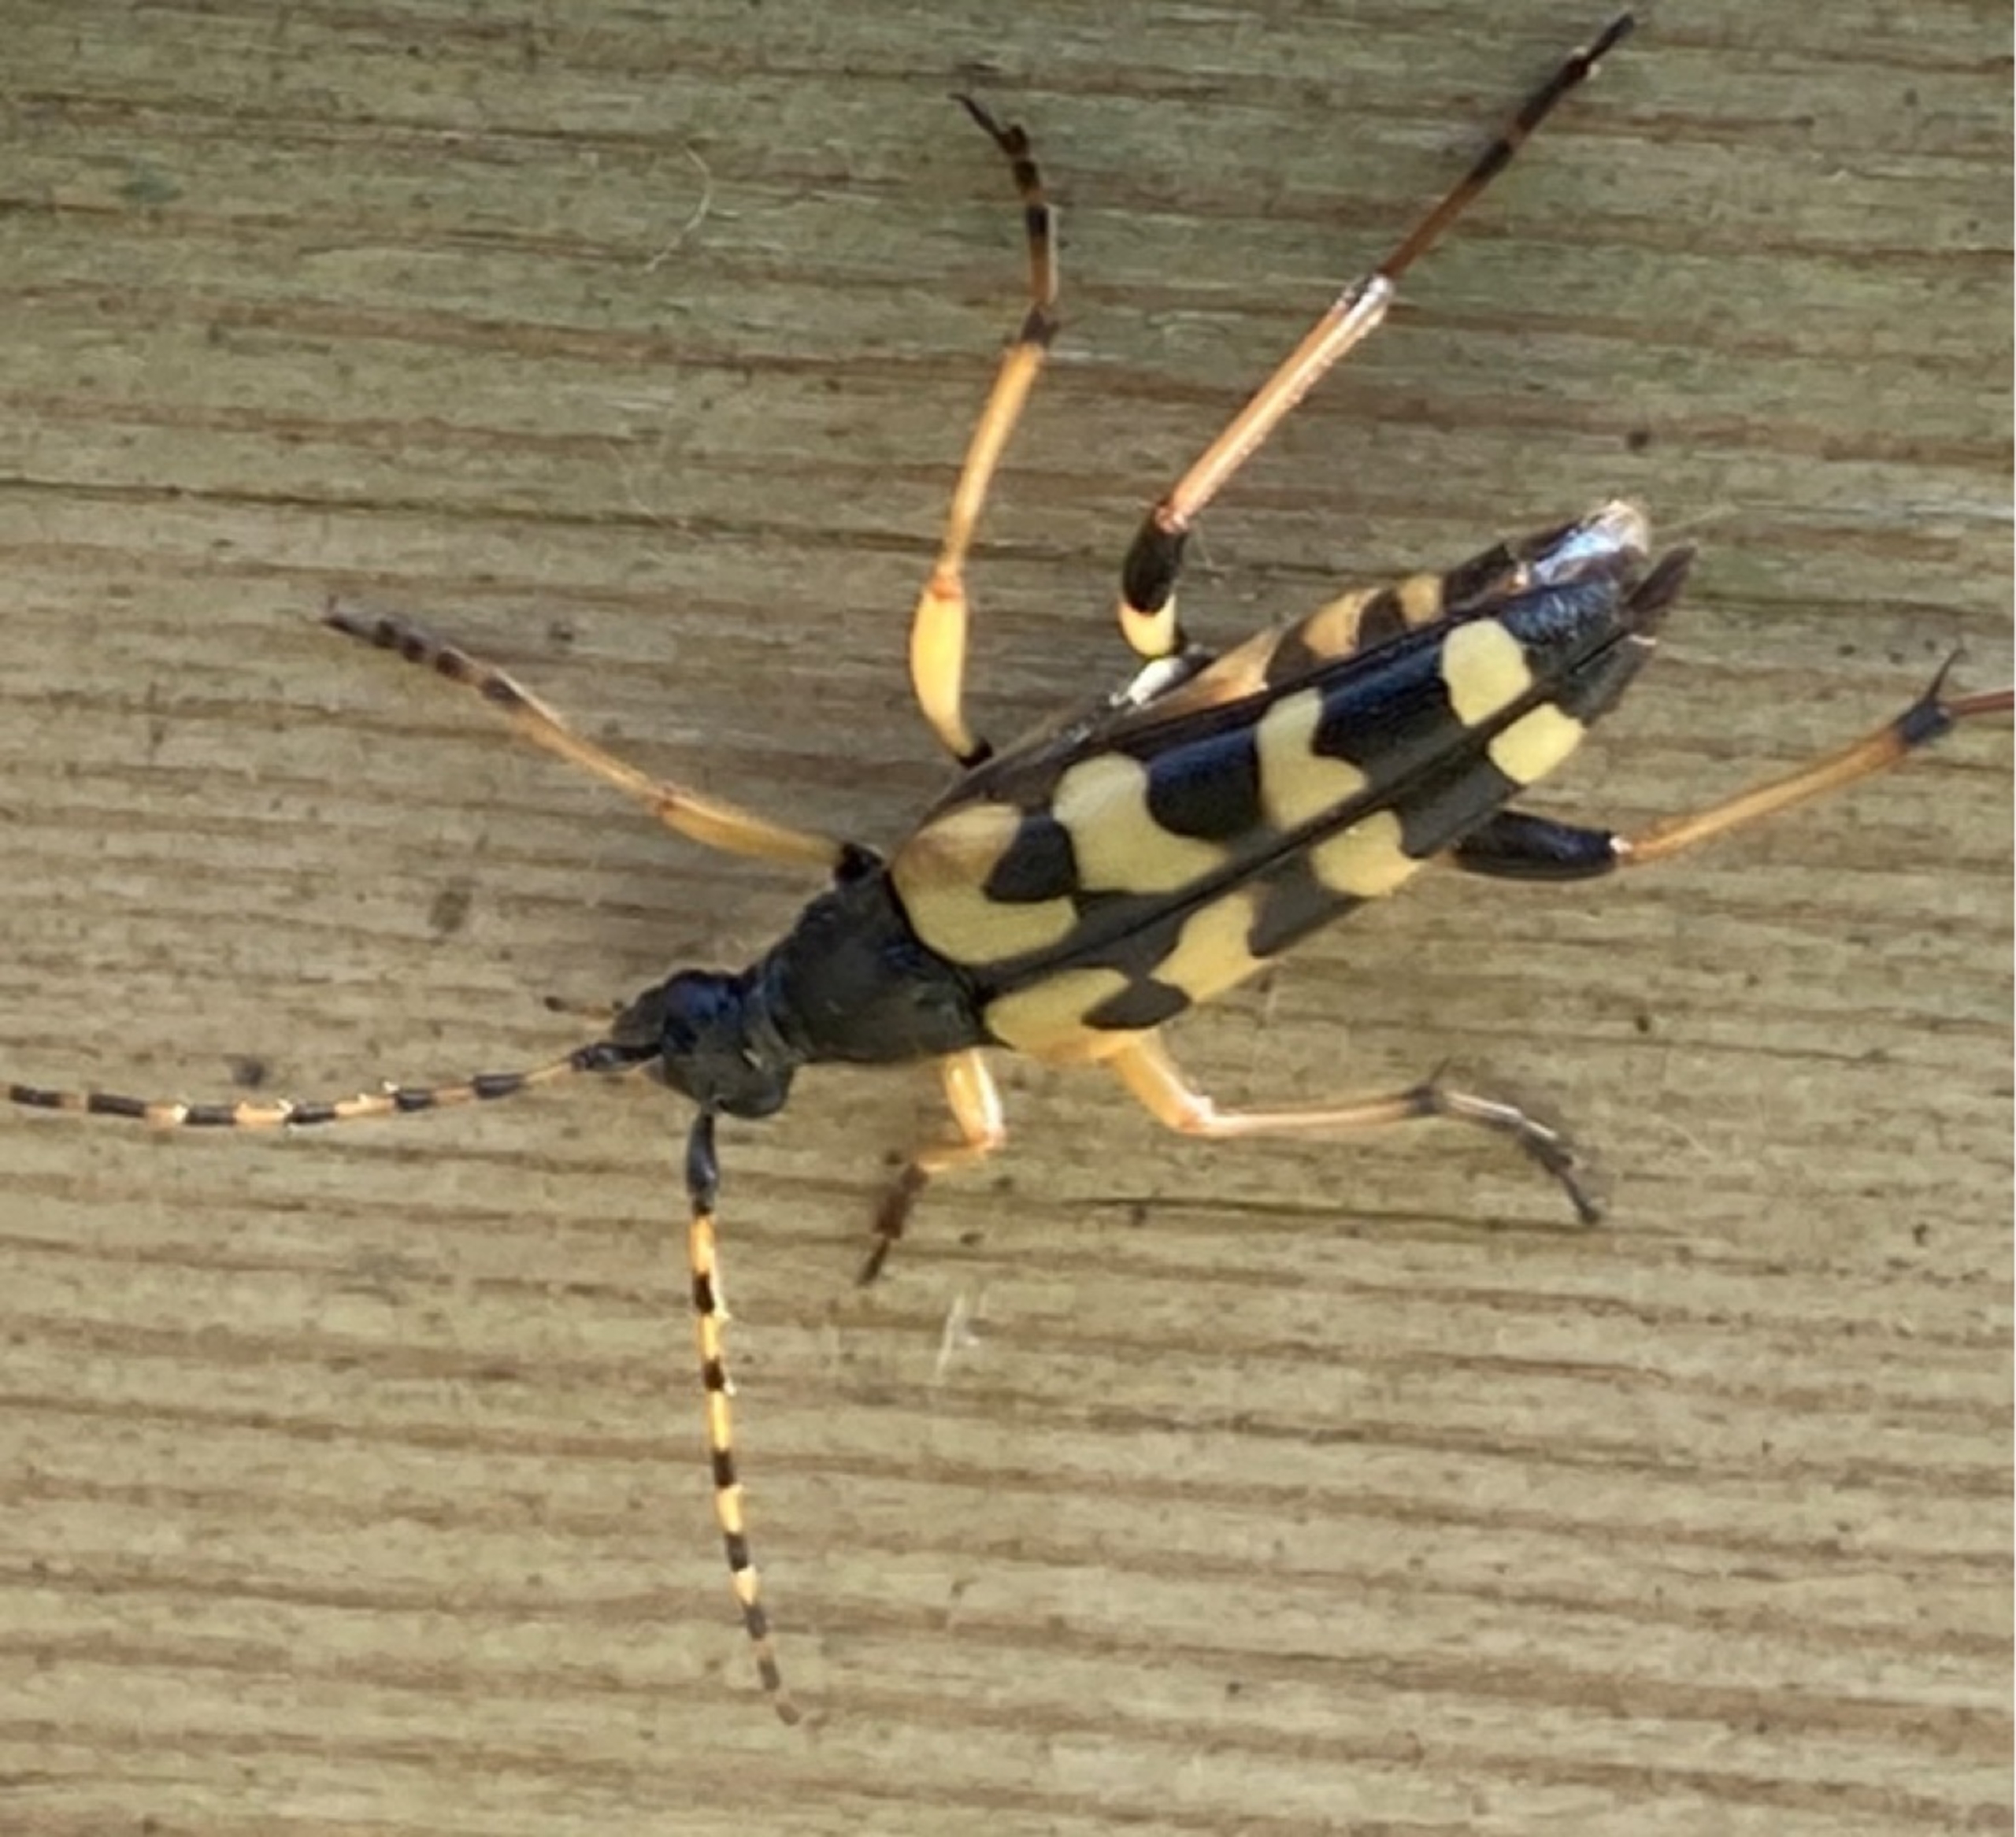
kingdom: Animalia
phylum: Arthropoda
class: Insecta
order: Coleoptera
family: Cerambycidae
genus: Rutpela
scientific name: Rutpela maculata
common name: Sydlig blomsterbuk
